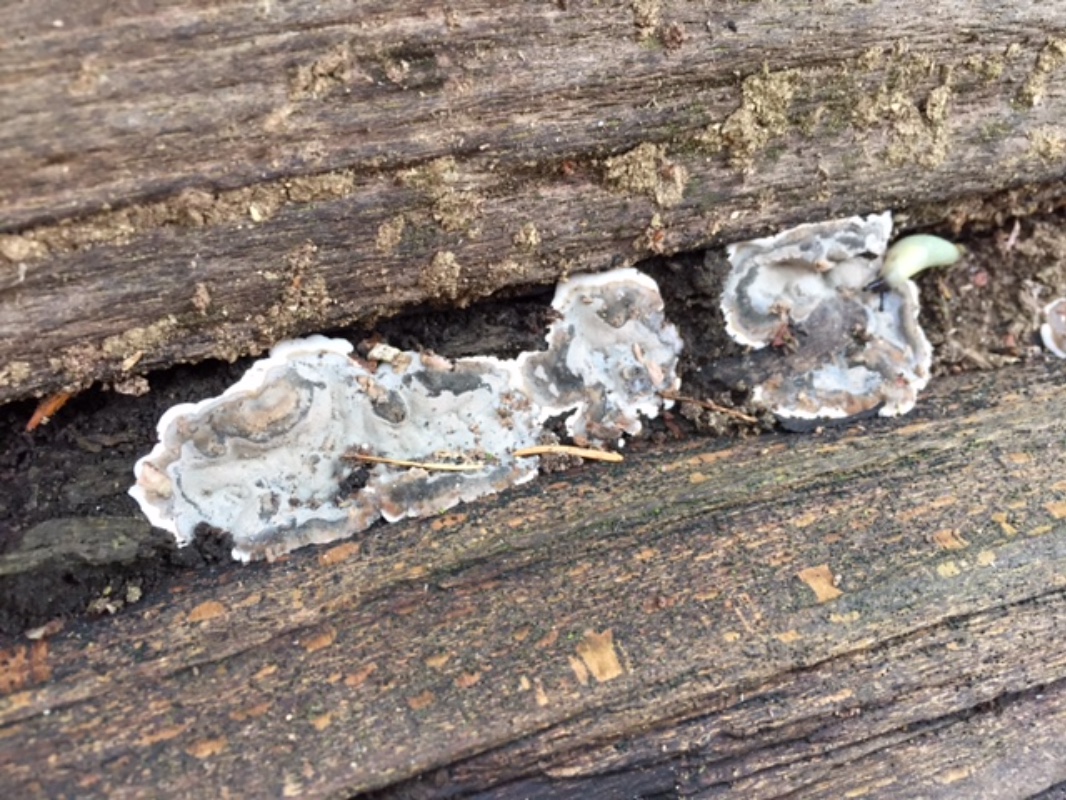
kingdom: Fungi
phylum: Ascomycota
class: Sordariomycetes
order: Xylariales
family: Xylariaceae
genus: Kretzschmaria
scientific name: Kretzschmaria deusta
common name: stor kulsvamp
